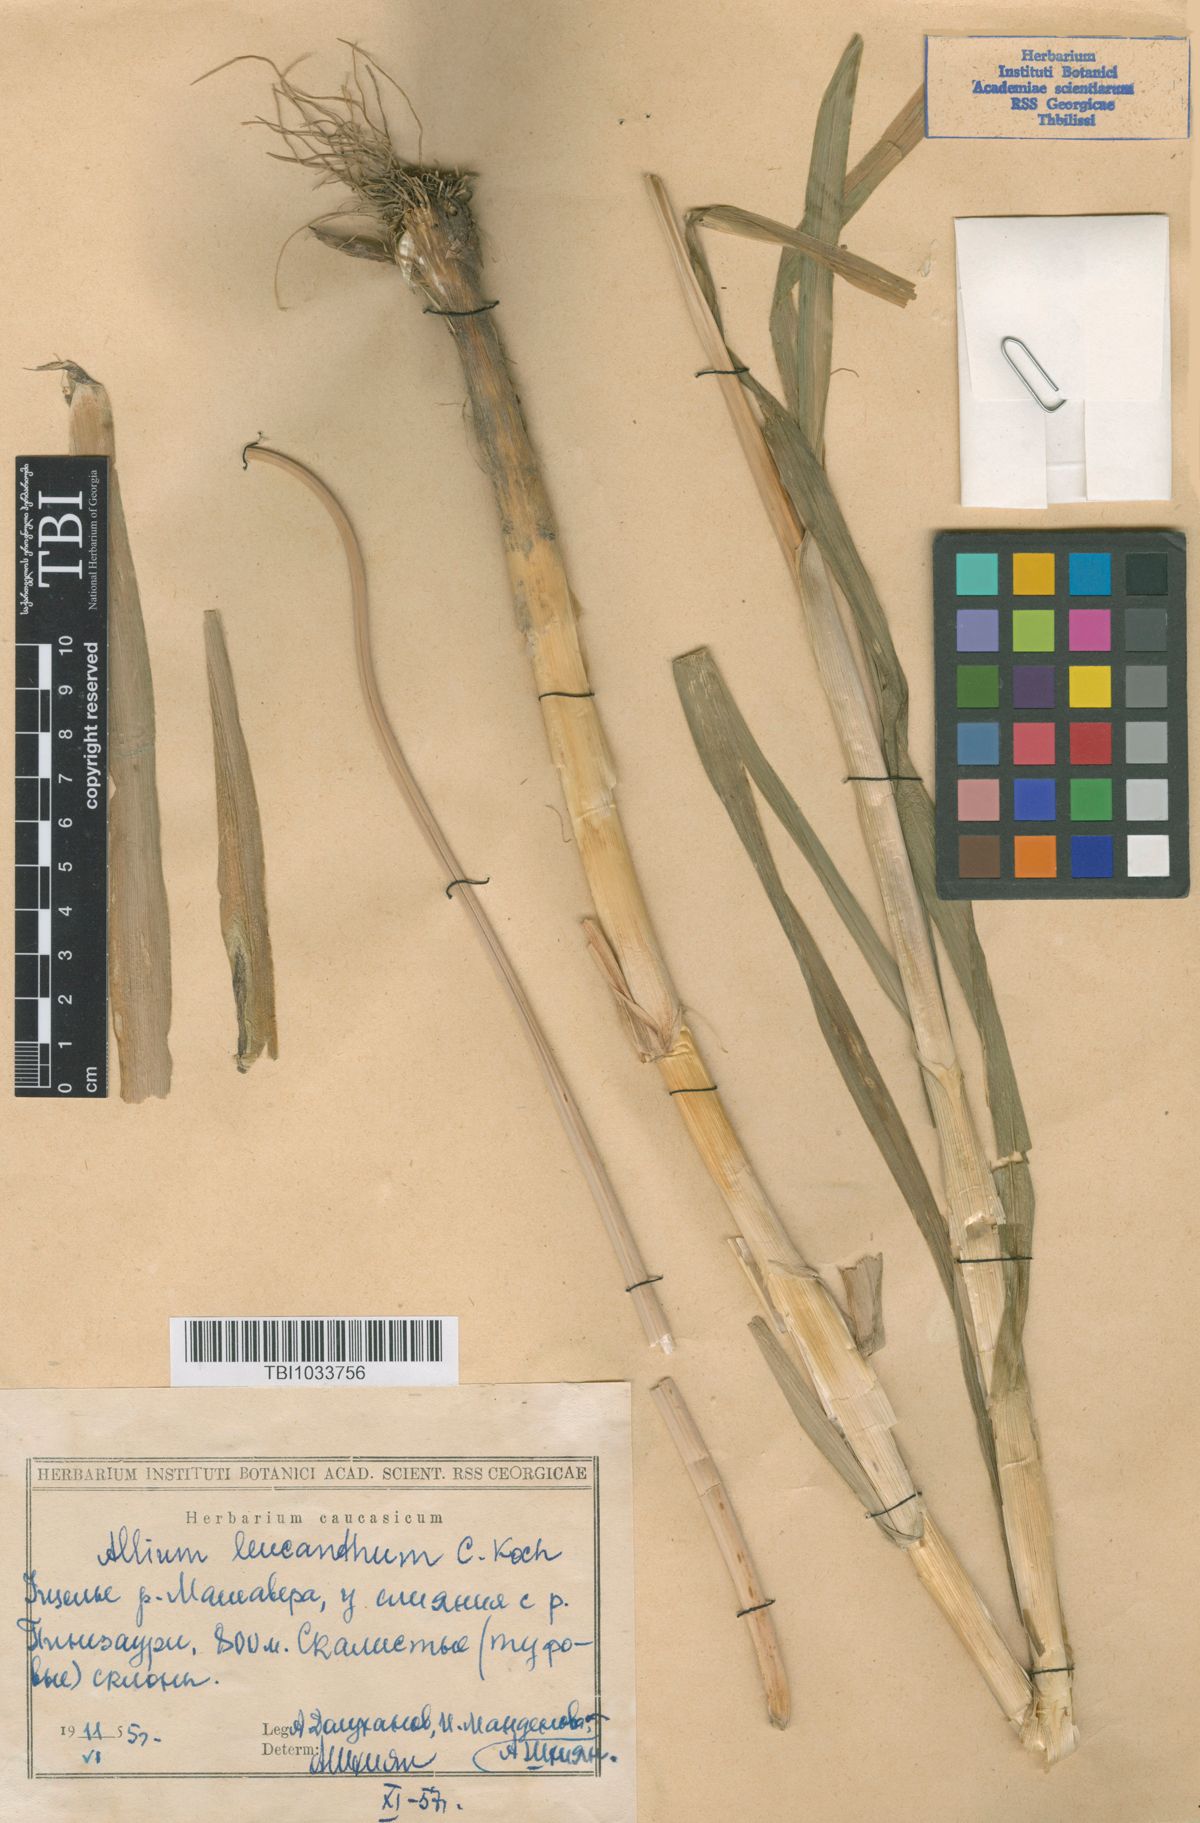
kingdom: Plantae
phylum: Tracheophyta
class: Liliopsida
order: Asparagales
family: Amaryllidaceae
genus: Allium
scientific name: Allium ampeloprasum
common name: Wild leek
